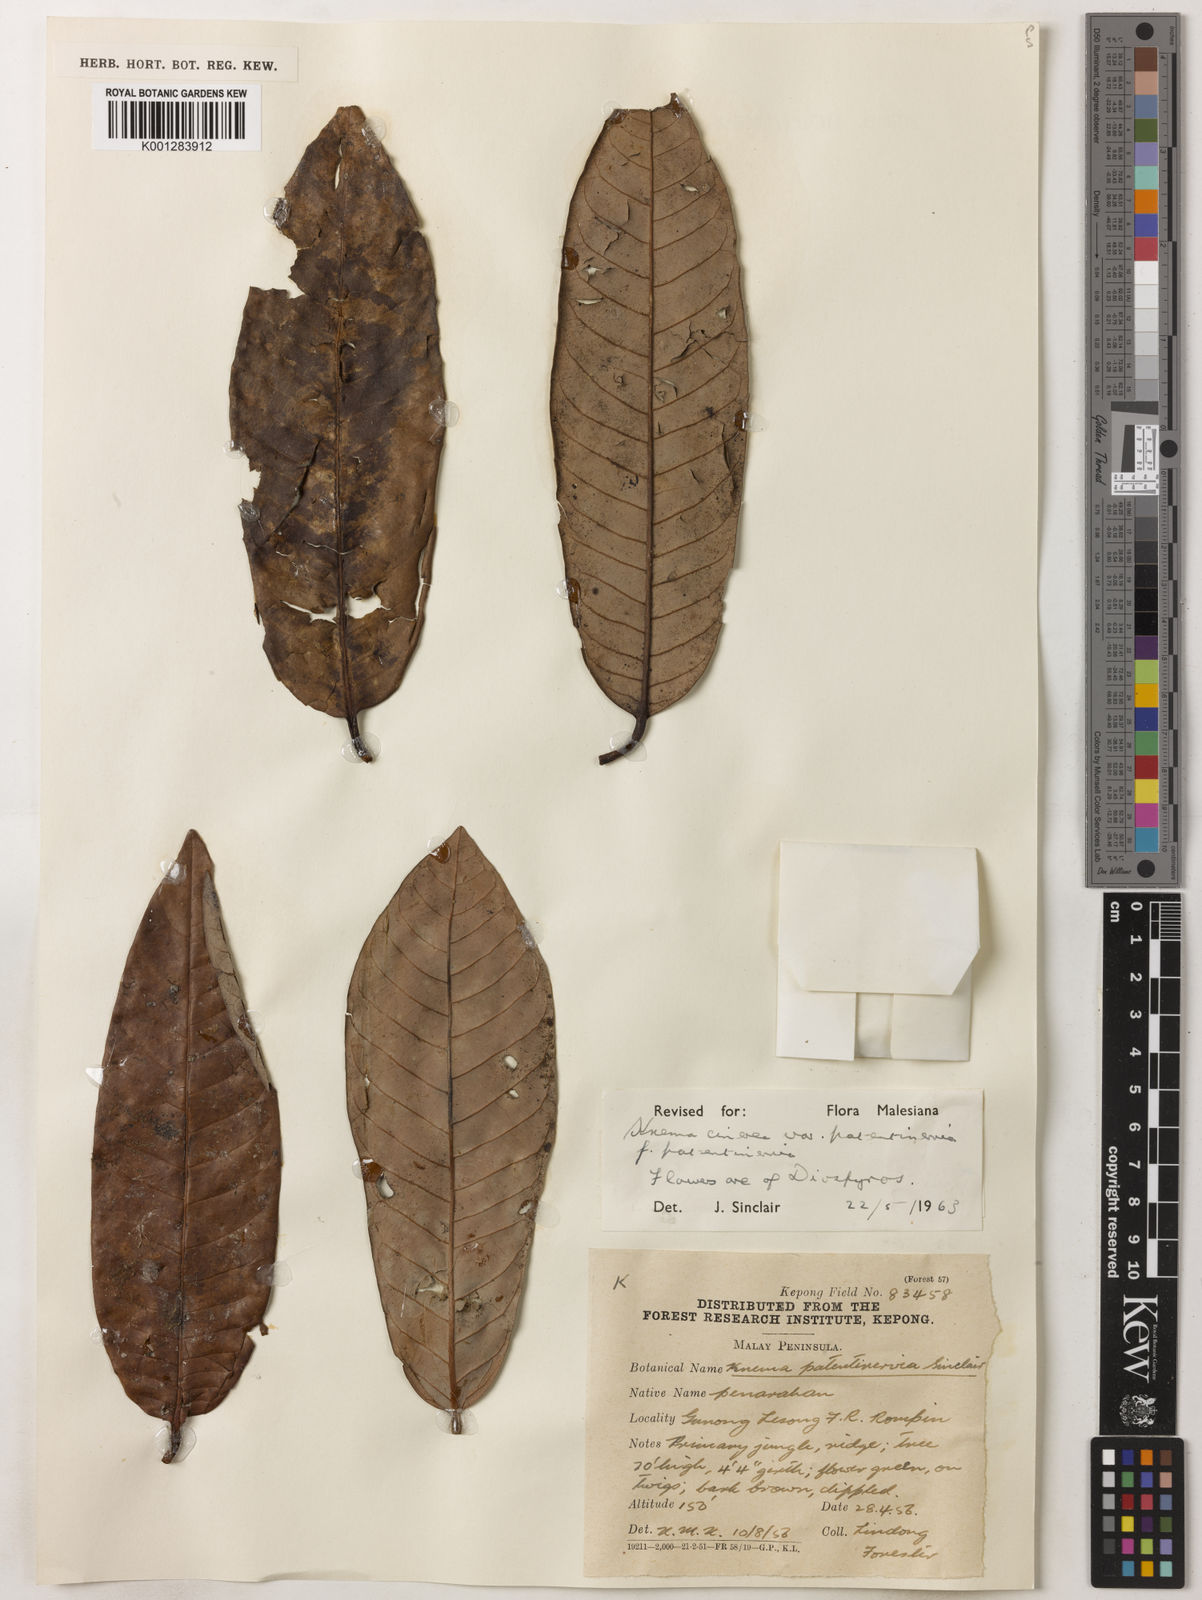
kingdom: Plantae
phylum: Tracheophyta
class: Magnoliopsida
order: Magnoliales
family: Myristicaceae
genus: Knema
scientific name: Knema
